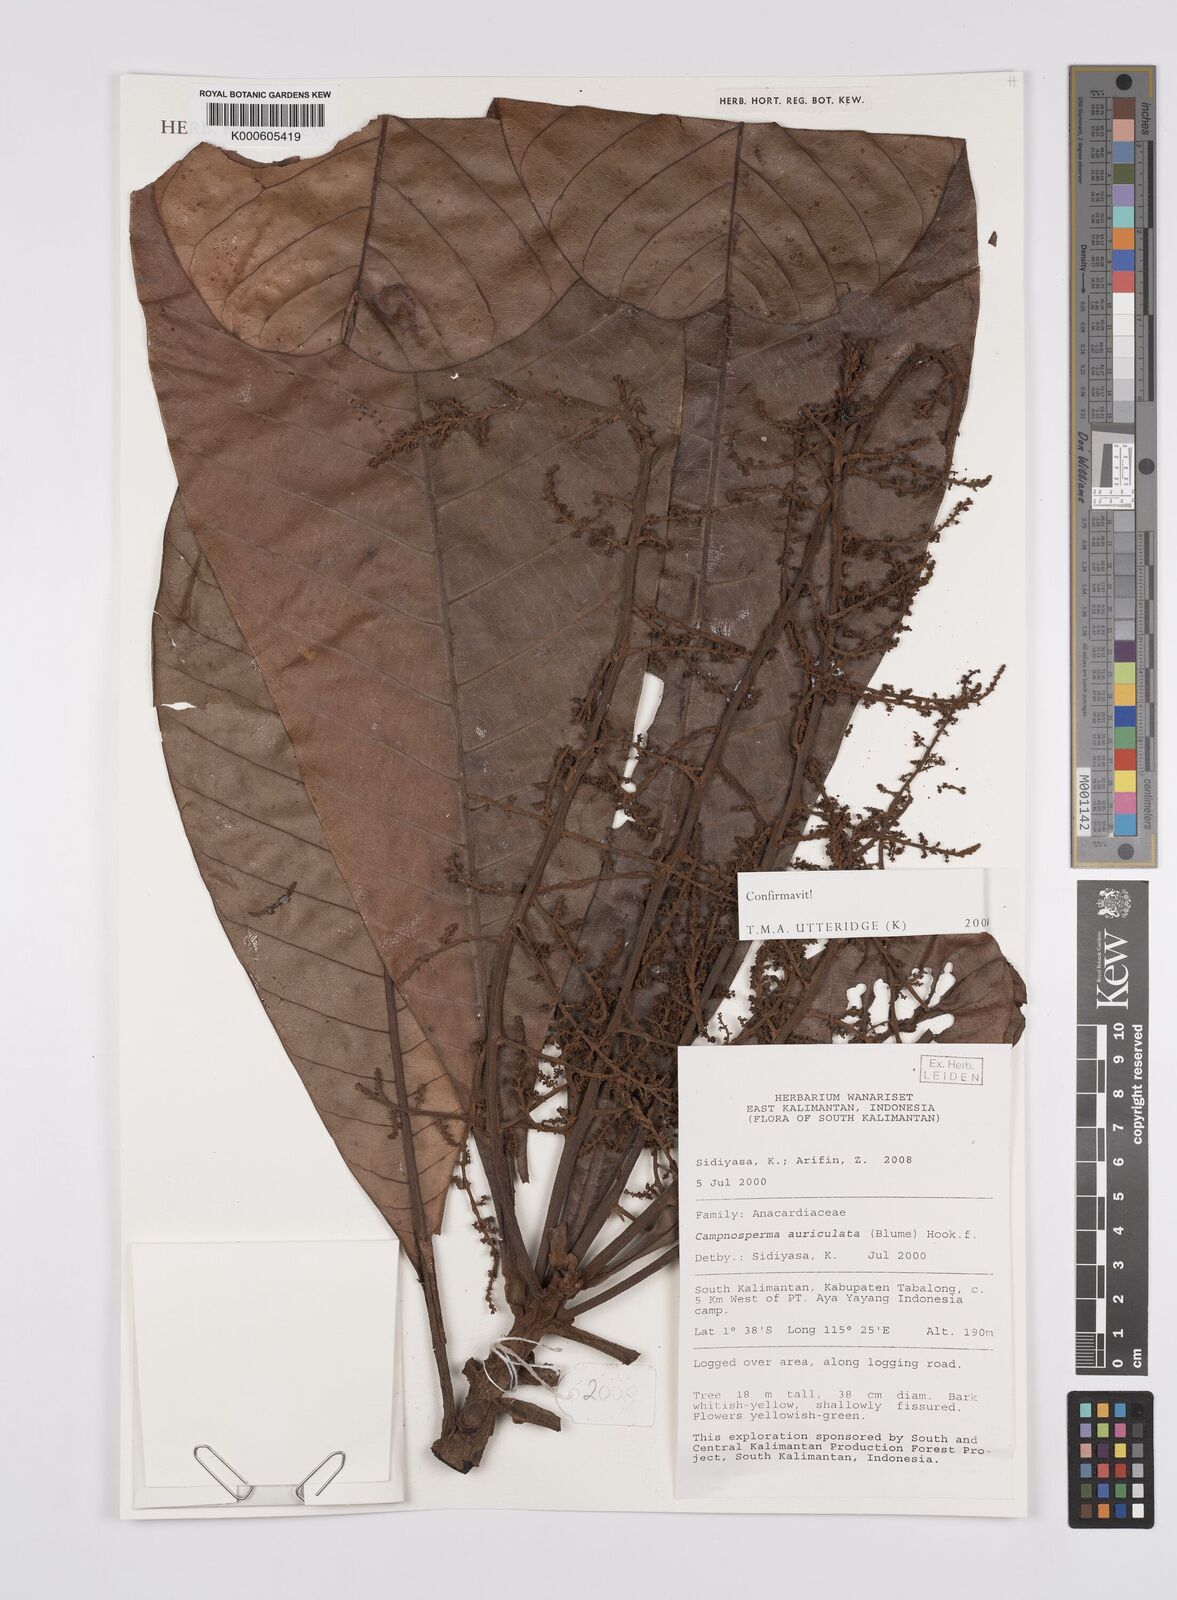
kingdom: Plantae
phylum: Tracheophyta
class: Magnoliopsida
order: Sapindales
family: Anacardiaceae
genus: Campnosperma
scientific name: Campnosperma auriculatum
